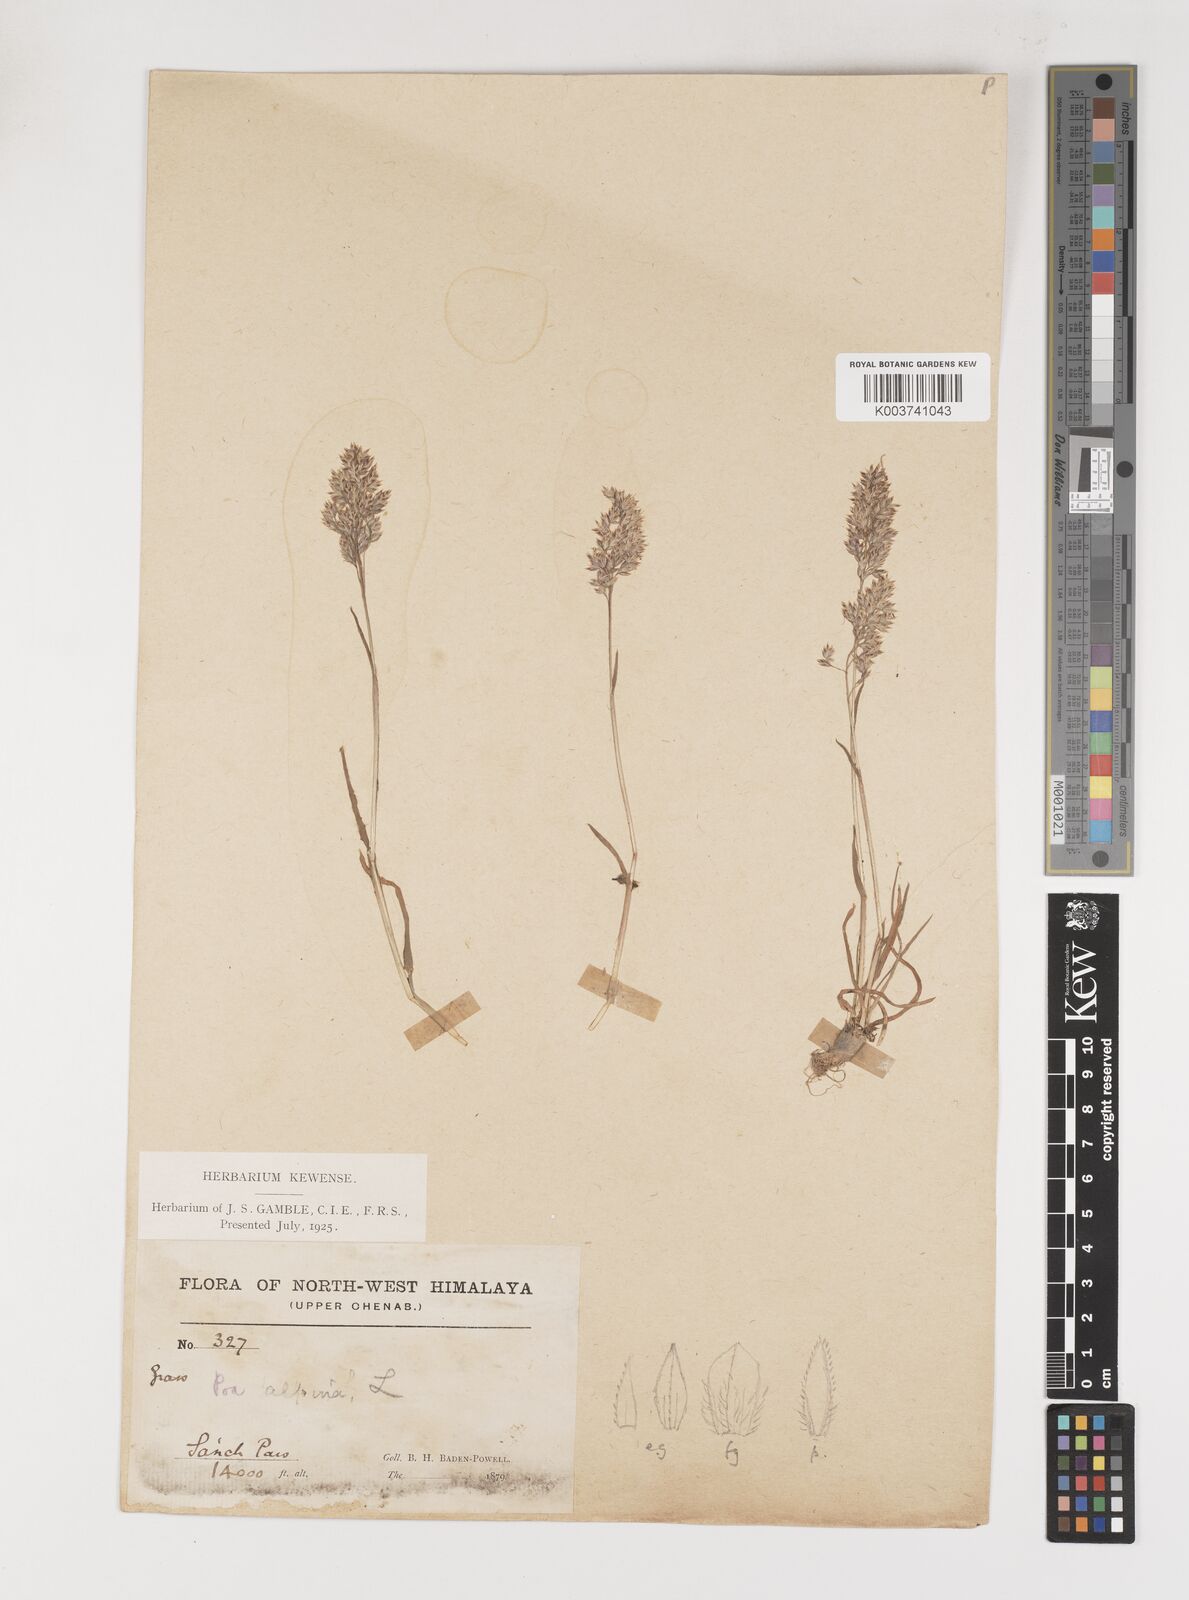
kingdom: Plantae
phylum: Tracheophyta
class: Liliopsida
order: Poales
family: Poaceae
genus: Poa
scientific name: Poa alpina
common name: Alpine bluegrass
